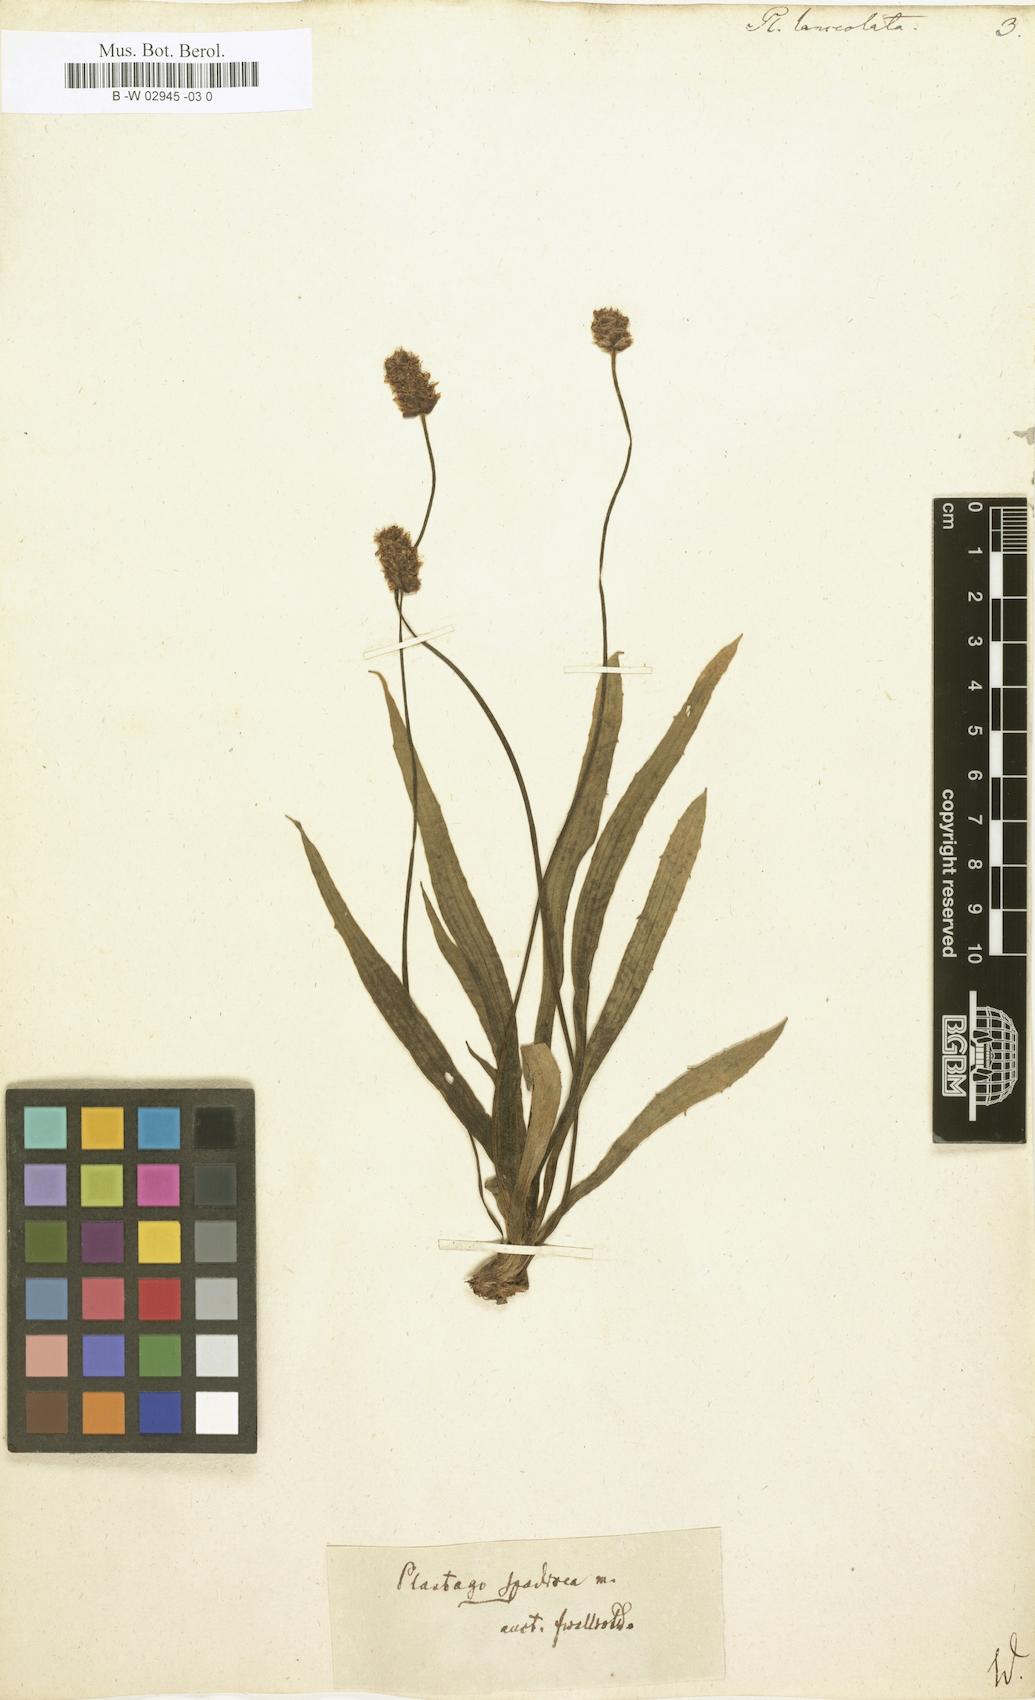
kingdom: Plantae
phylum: Tracheophyta
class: Magnoliopsida
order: Lamiales
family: Plantaginaceae
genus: Plantago
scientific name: Plantago lanceolata
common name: Ribwort plantain
